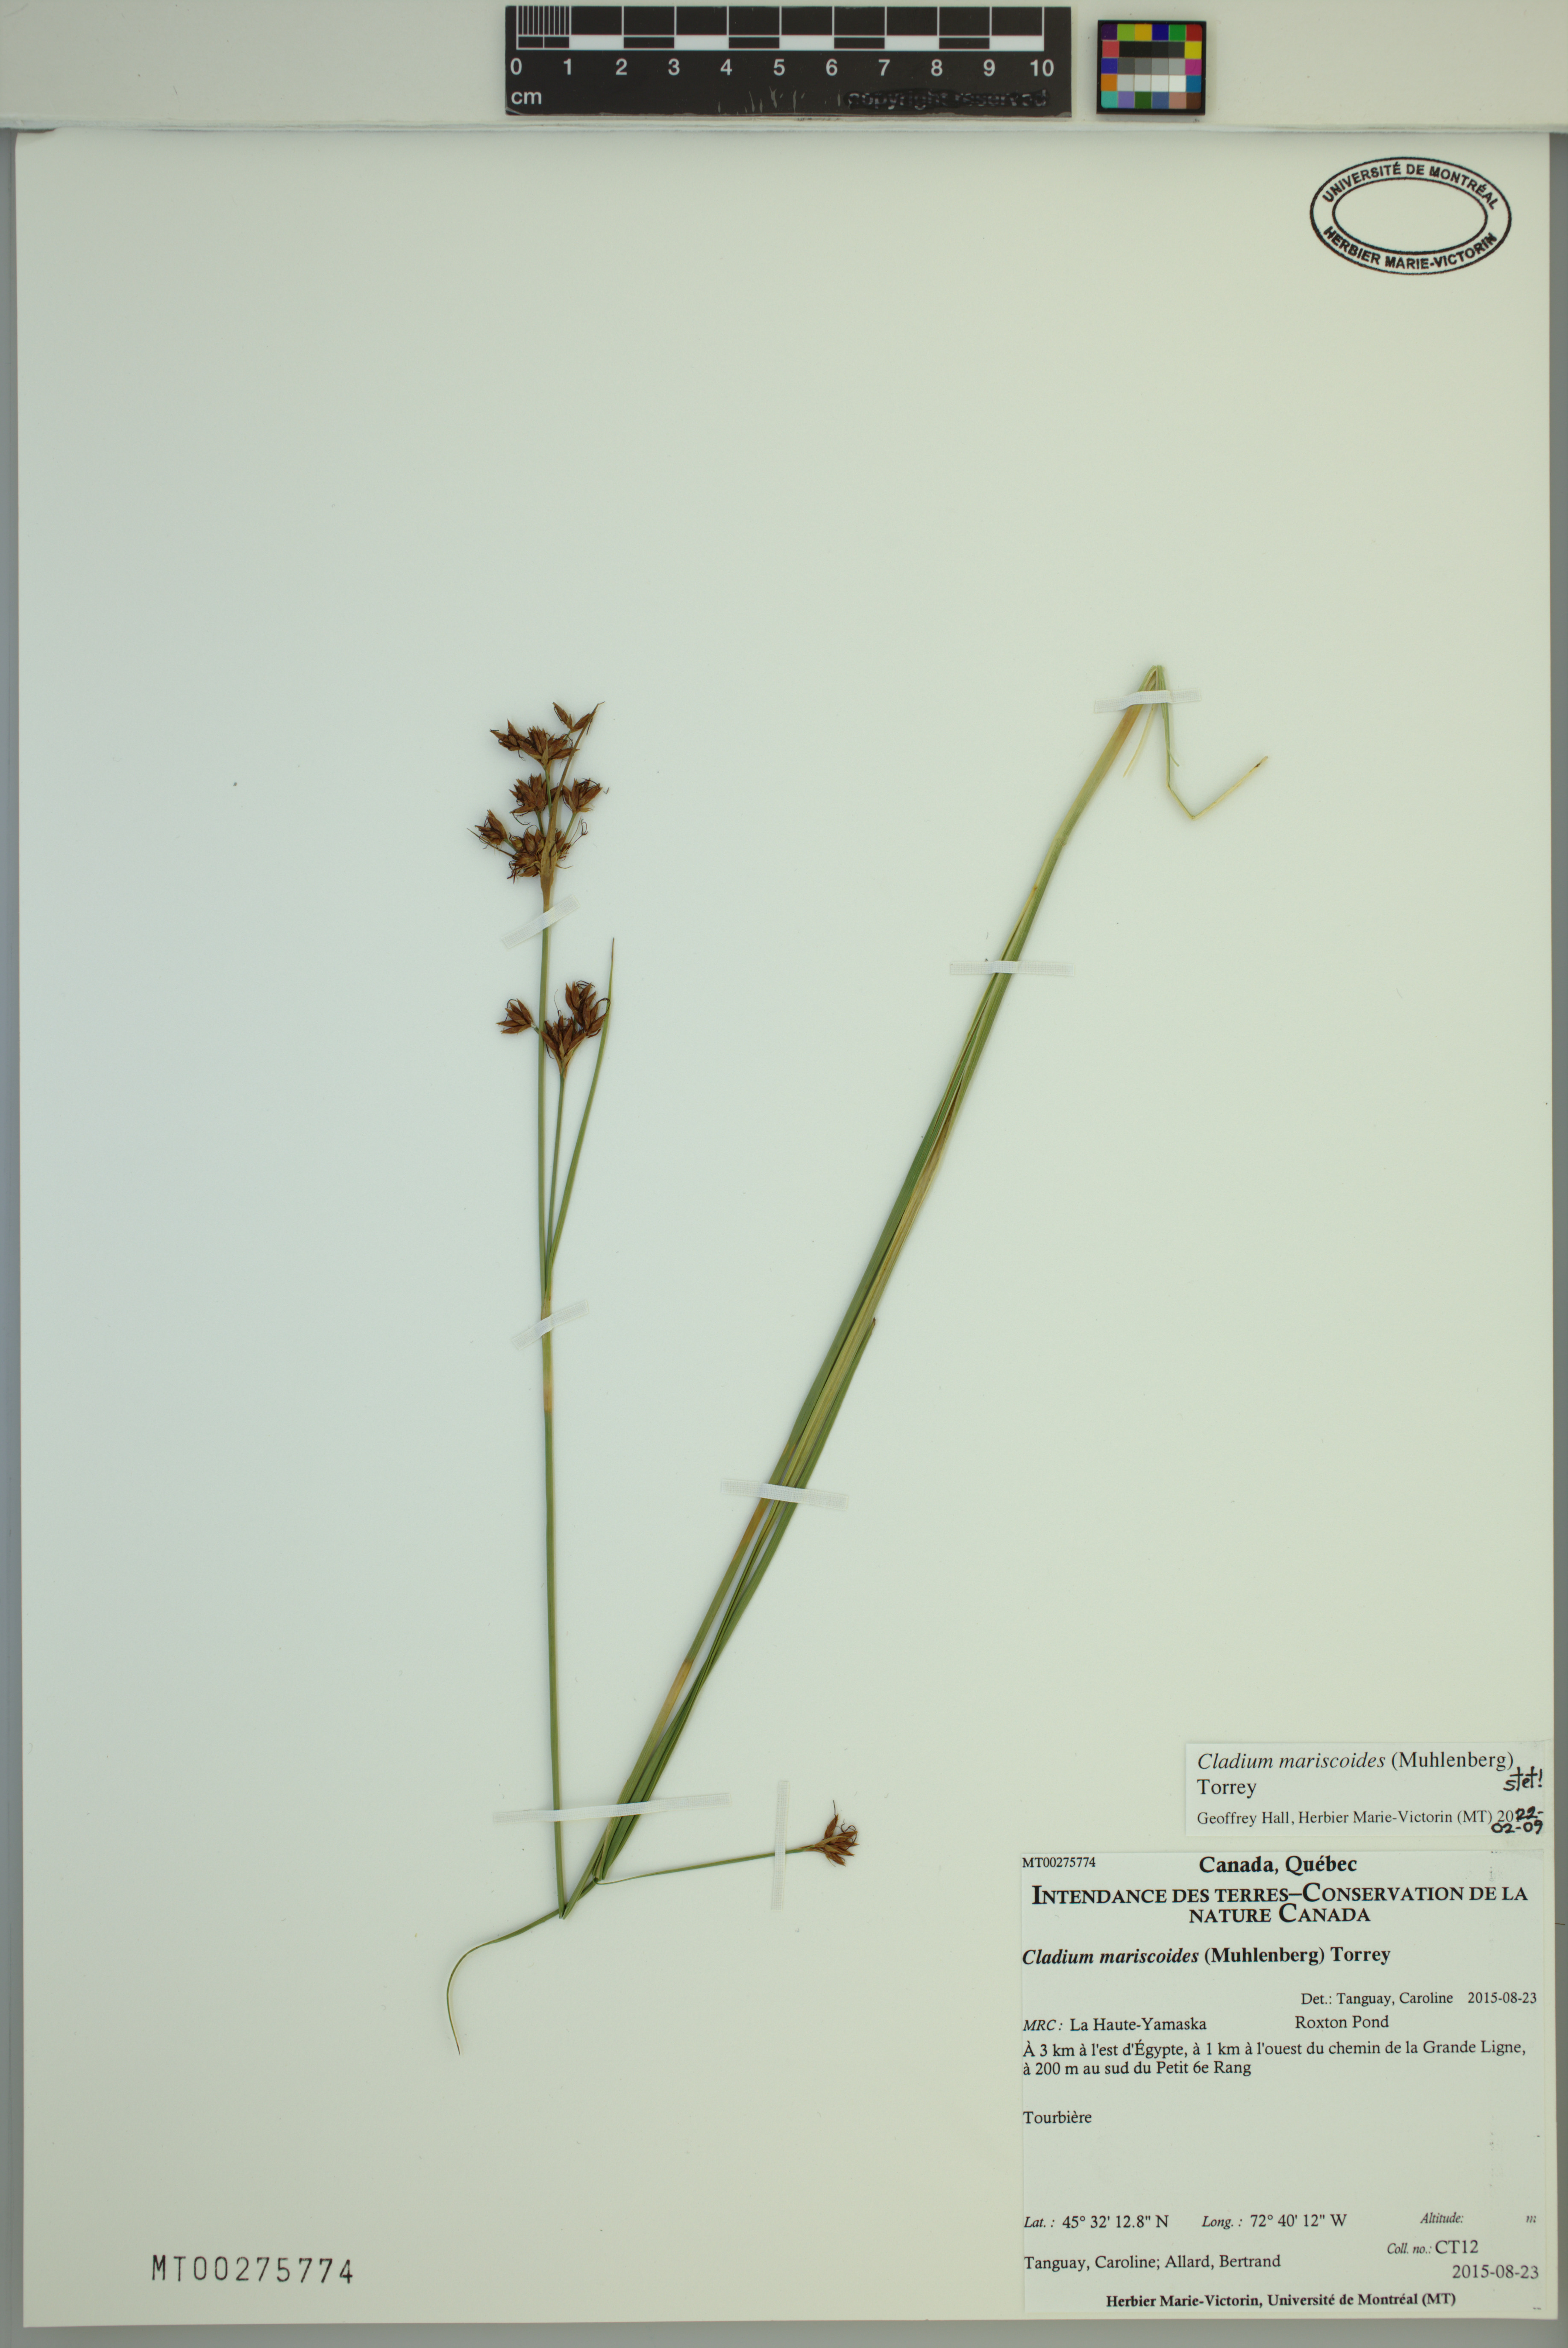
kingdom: Plantae
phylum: Tracheophyta
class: Liliopsida
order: Poales
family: Cyperaceae
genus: Cladium
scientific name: Cladium mariscoides
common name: Smooth sawgrass
